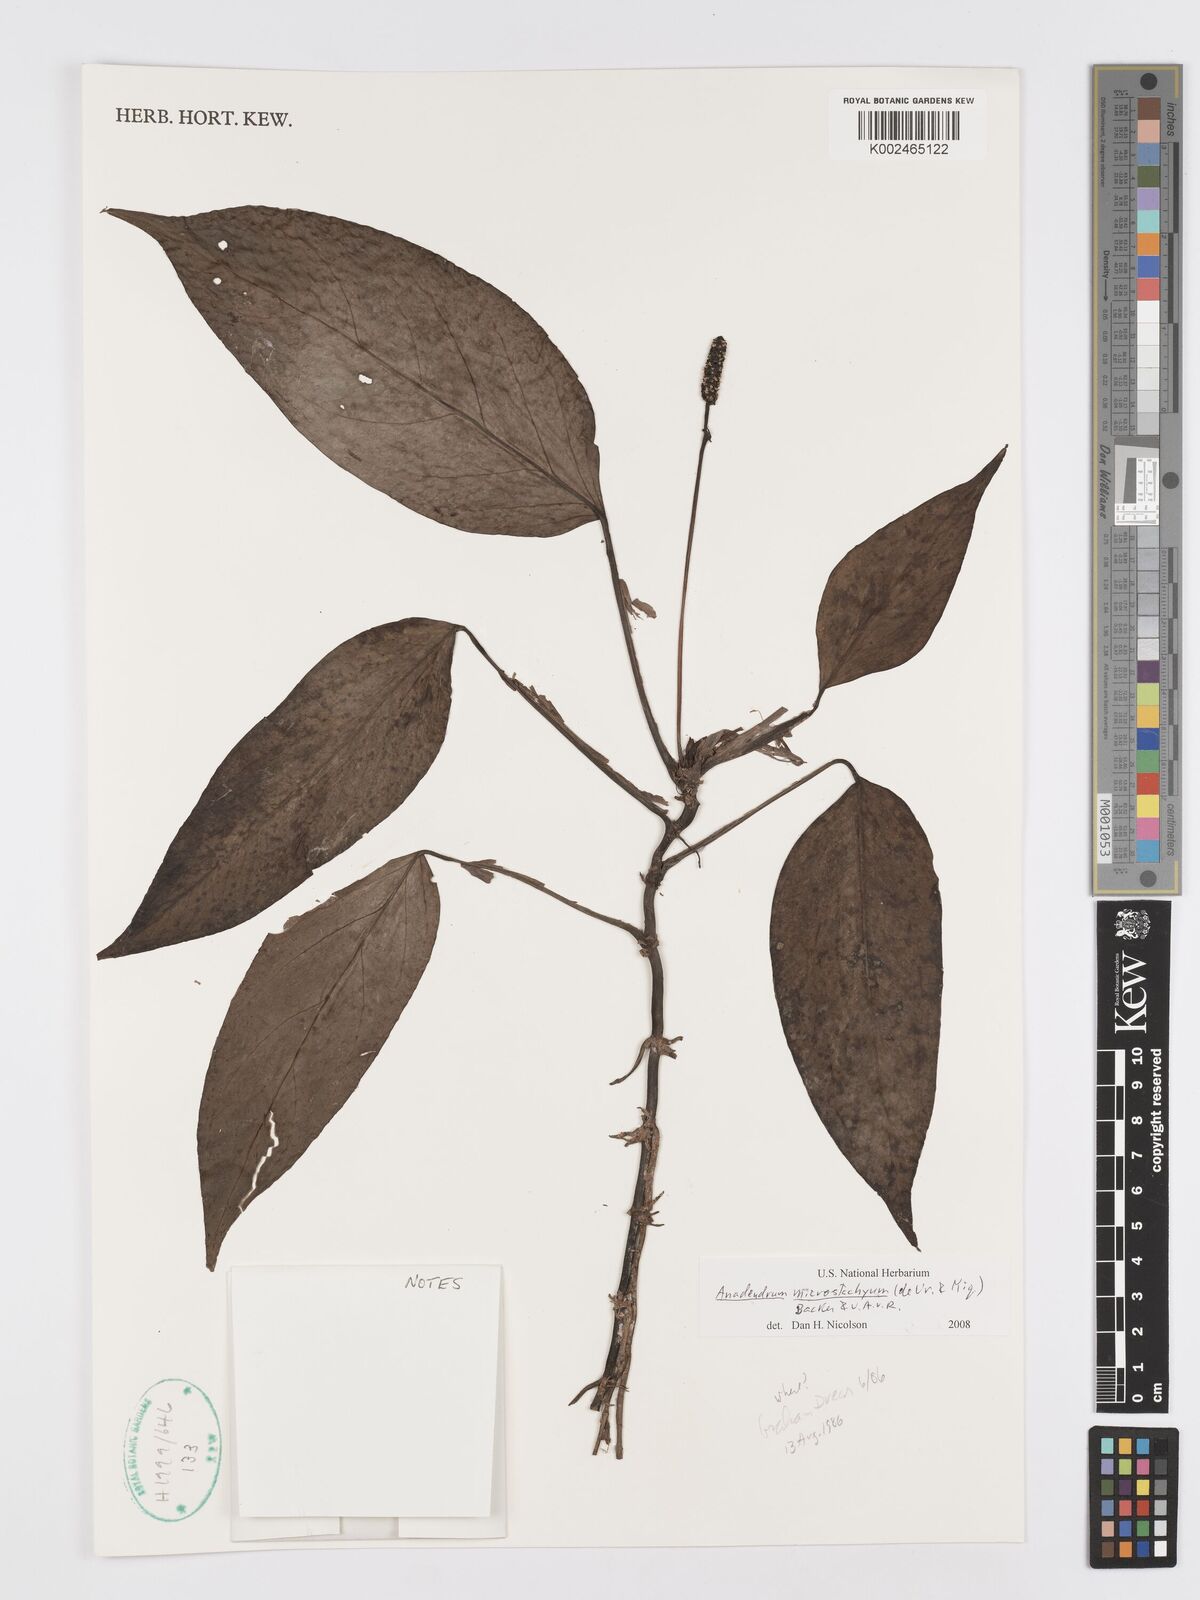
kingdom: Plantae
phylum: Tracheophyta
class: Liliopsida
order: Alismatales
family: Araceae
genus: Anadendrum
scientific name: Anadendrum microstachyum
